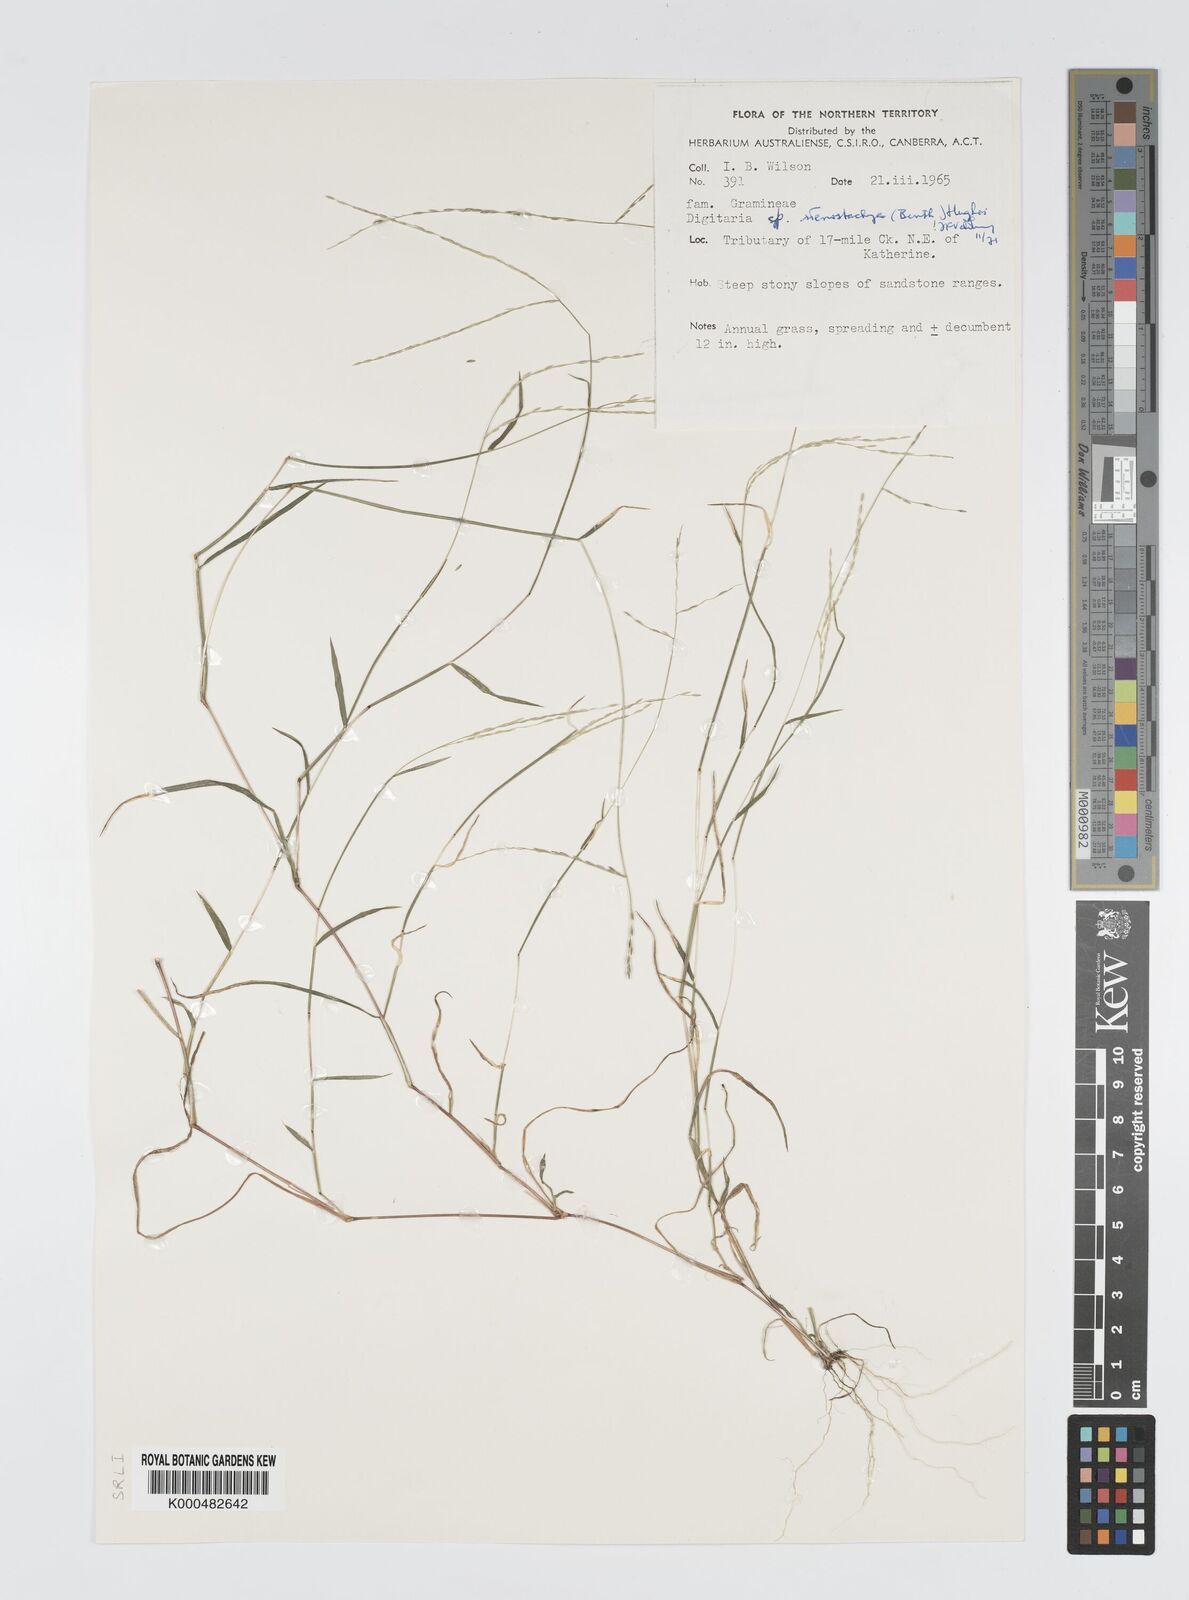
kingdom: Plantae
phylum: Tracheophyta
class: Liliopsida
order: Poales
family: Poaceae
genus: Digitaria
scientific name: Digitaria stenostachya
